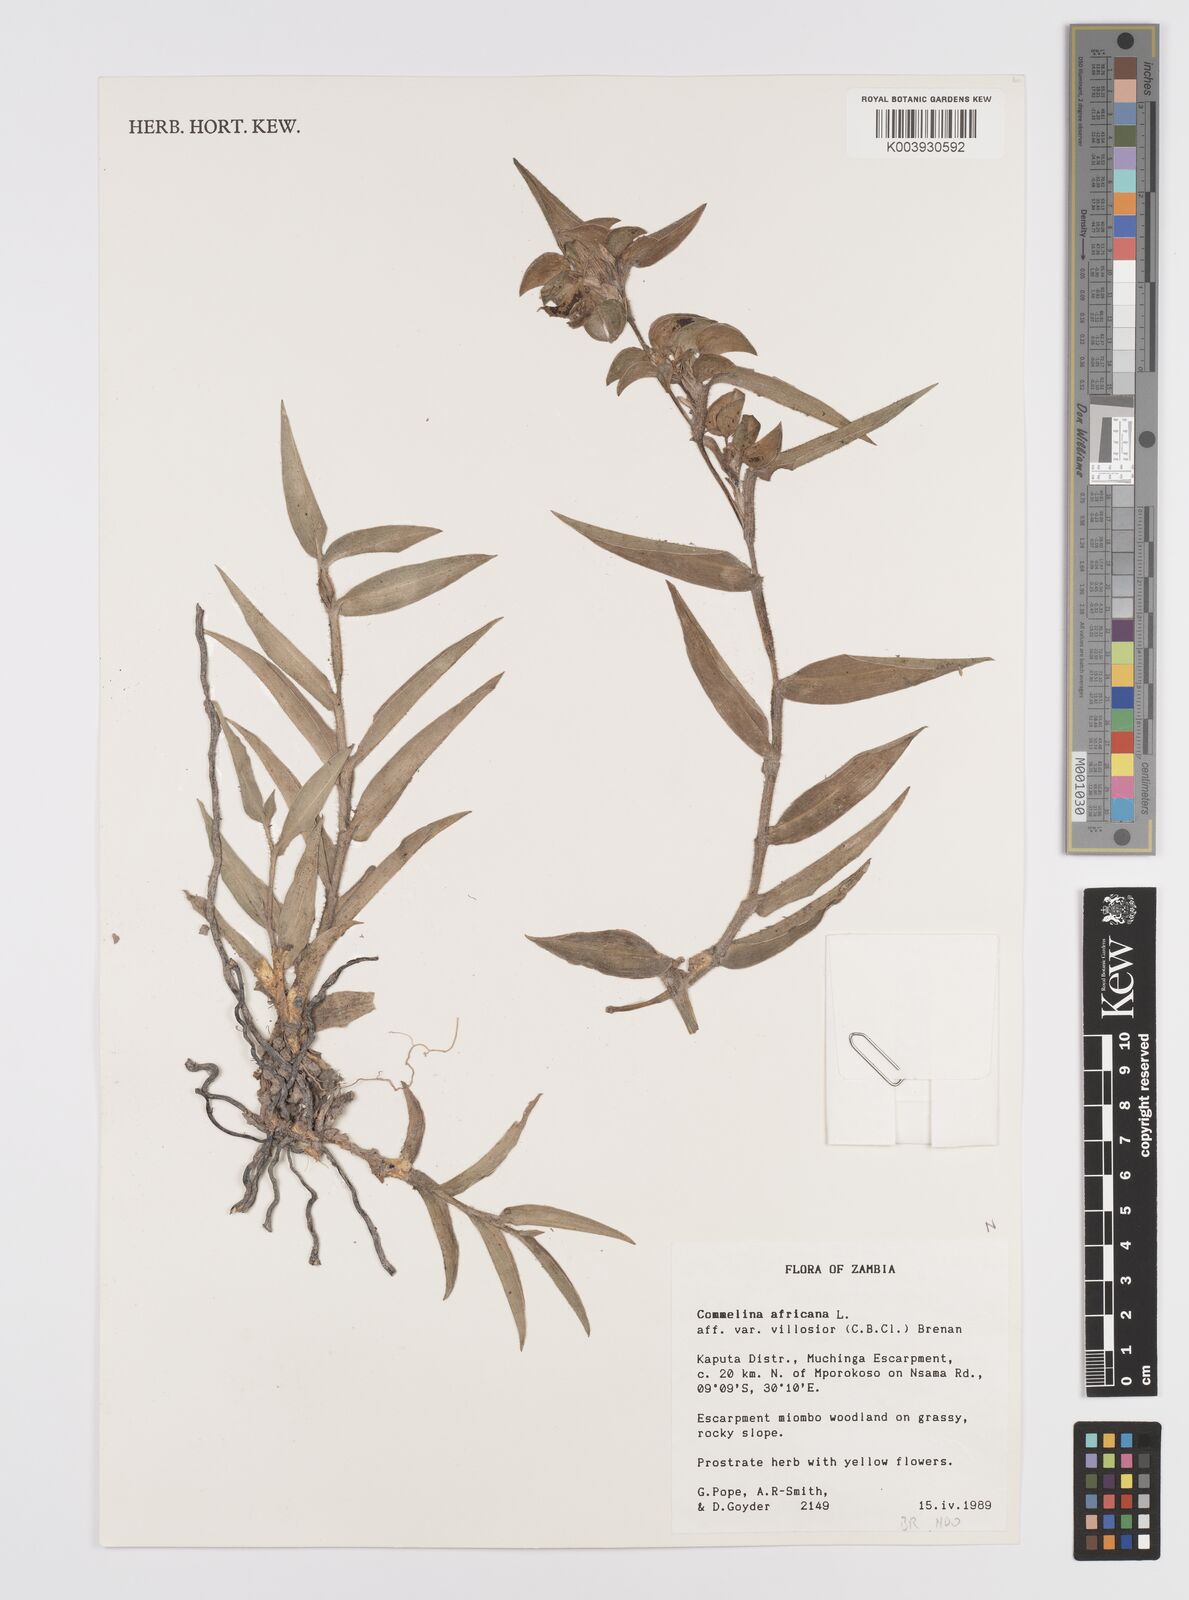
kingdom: Plantae
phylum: Tracheophyta
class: Liliopsida
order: Commelinales
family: Commelinaceae
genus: Commelina
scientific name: Commelina africana
